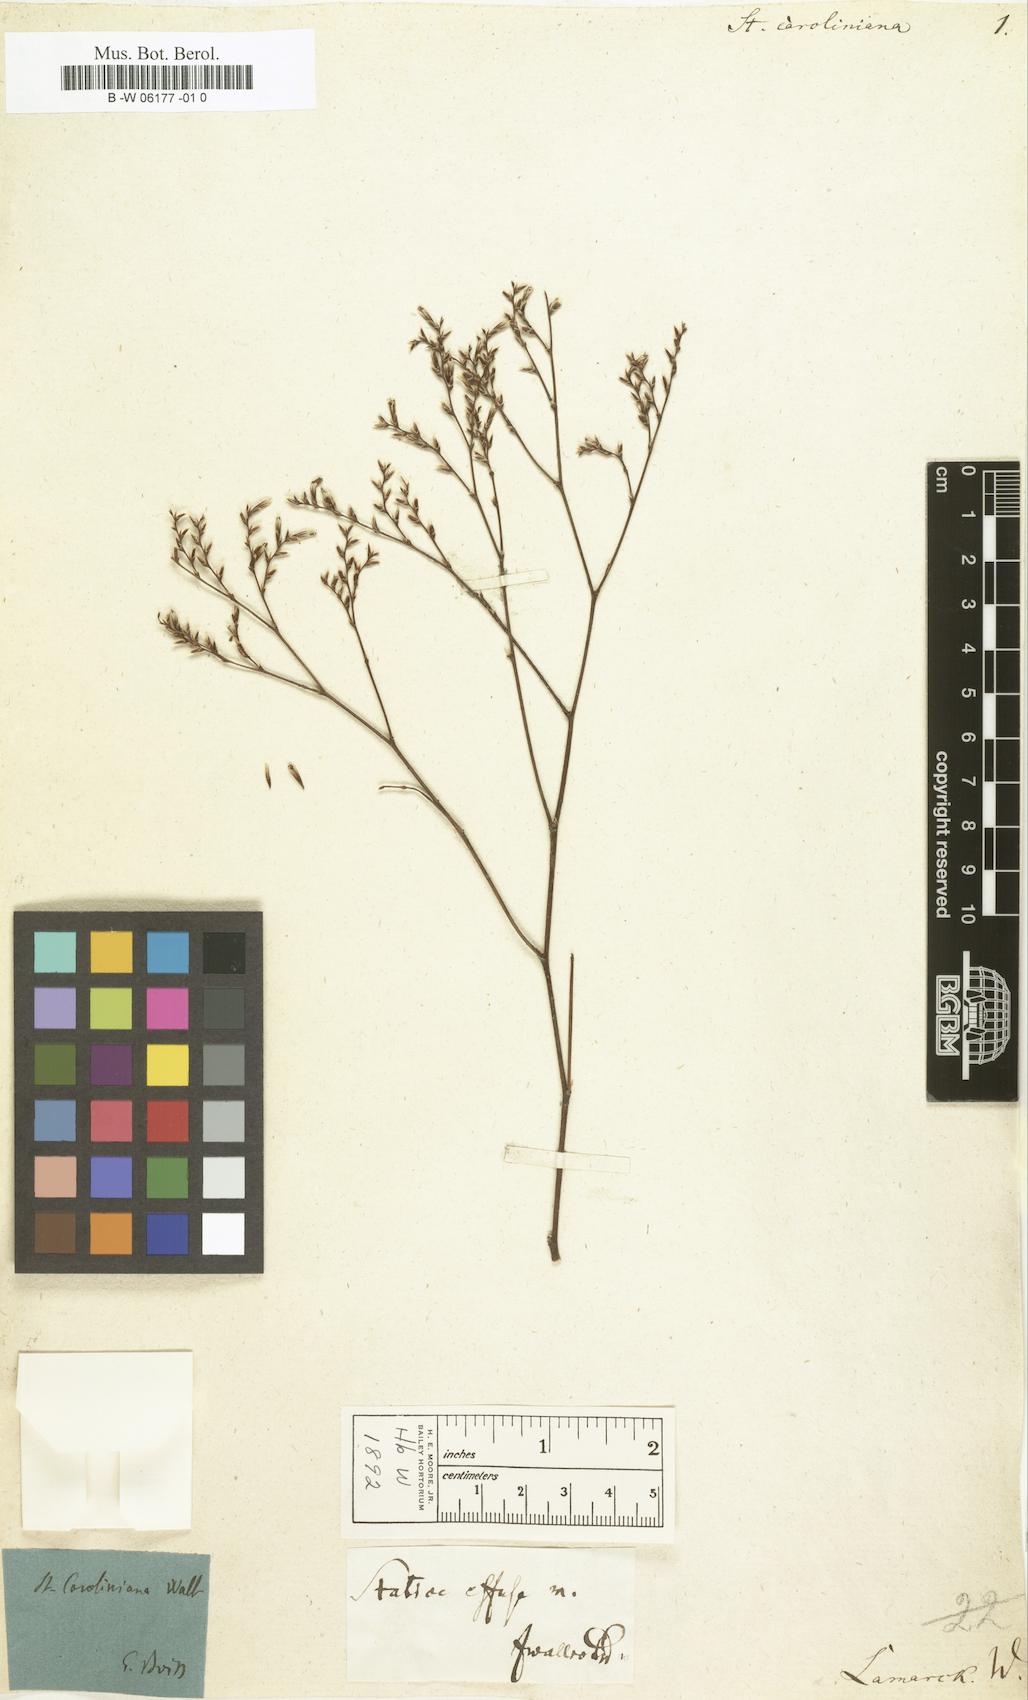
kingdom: Plantae
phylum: Tracheophyta
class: Magnoliopsida
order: Caryophyllales
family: Plumbaginaceae
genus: Limonium
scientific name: Limonium carolinianum
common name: Carolina sea lavender
